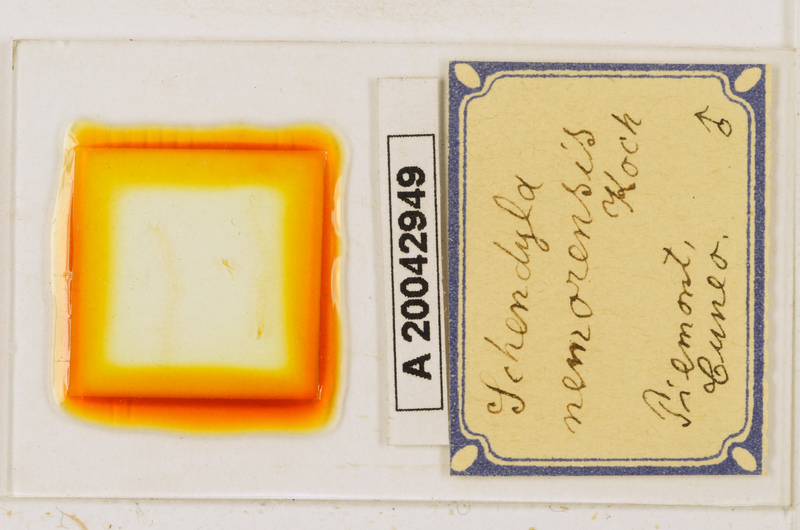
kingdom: Animalia
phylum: Arthropoda
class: Chilopoda
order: Geophilomorpha
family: Schendylidae
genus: Schendyla
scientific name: Schendyla nemorensis
